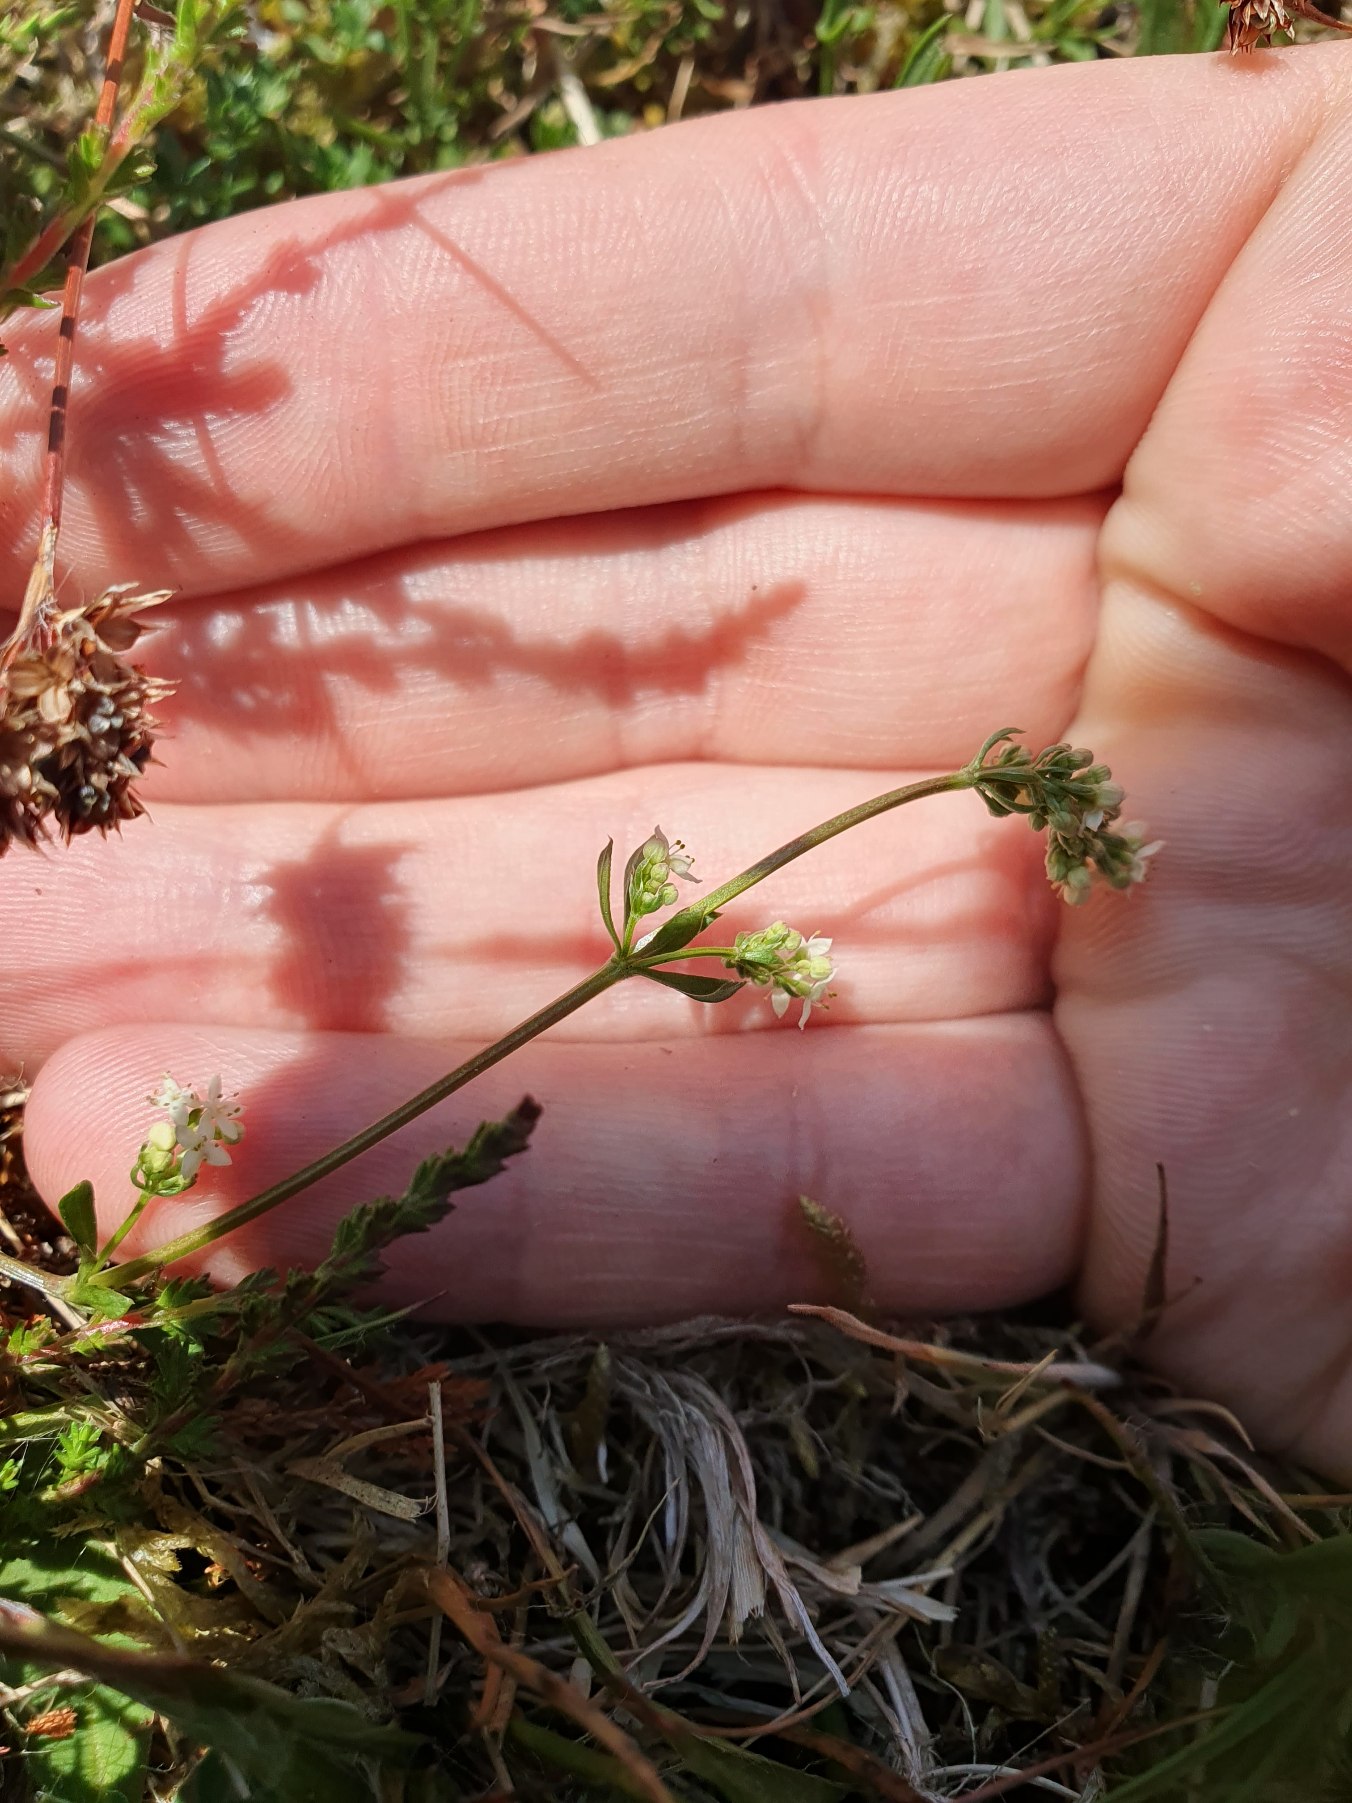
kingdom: Plantae
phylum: Tracheophyta
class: Magnoliopsida
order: Gentianales
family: Rubiaceae
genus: Galium
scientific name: Galium saxatile
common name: Lyng-snerre
